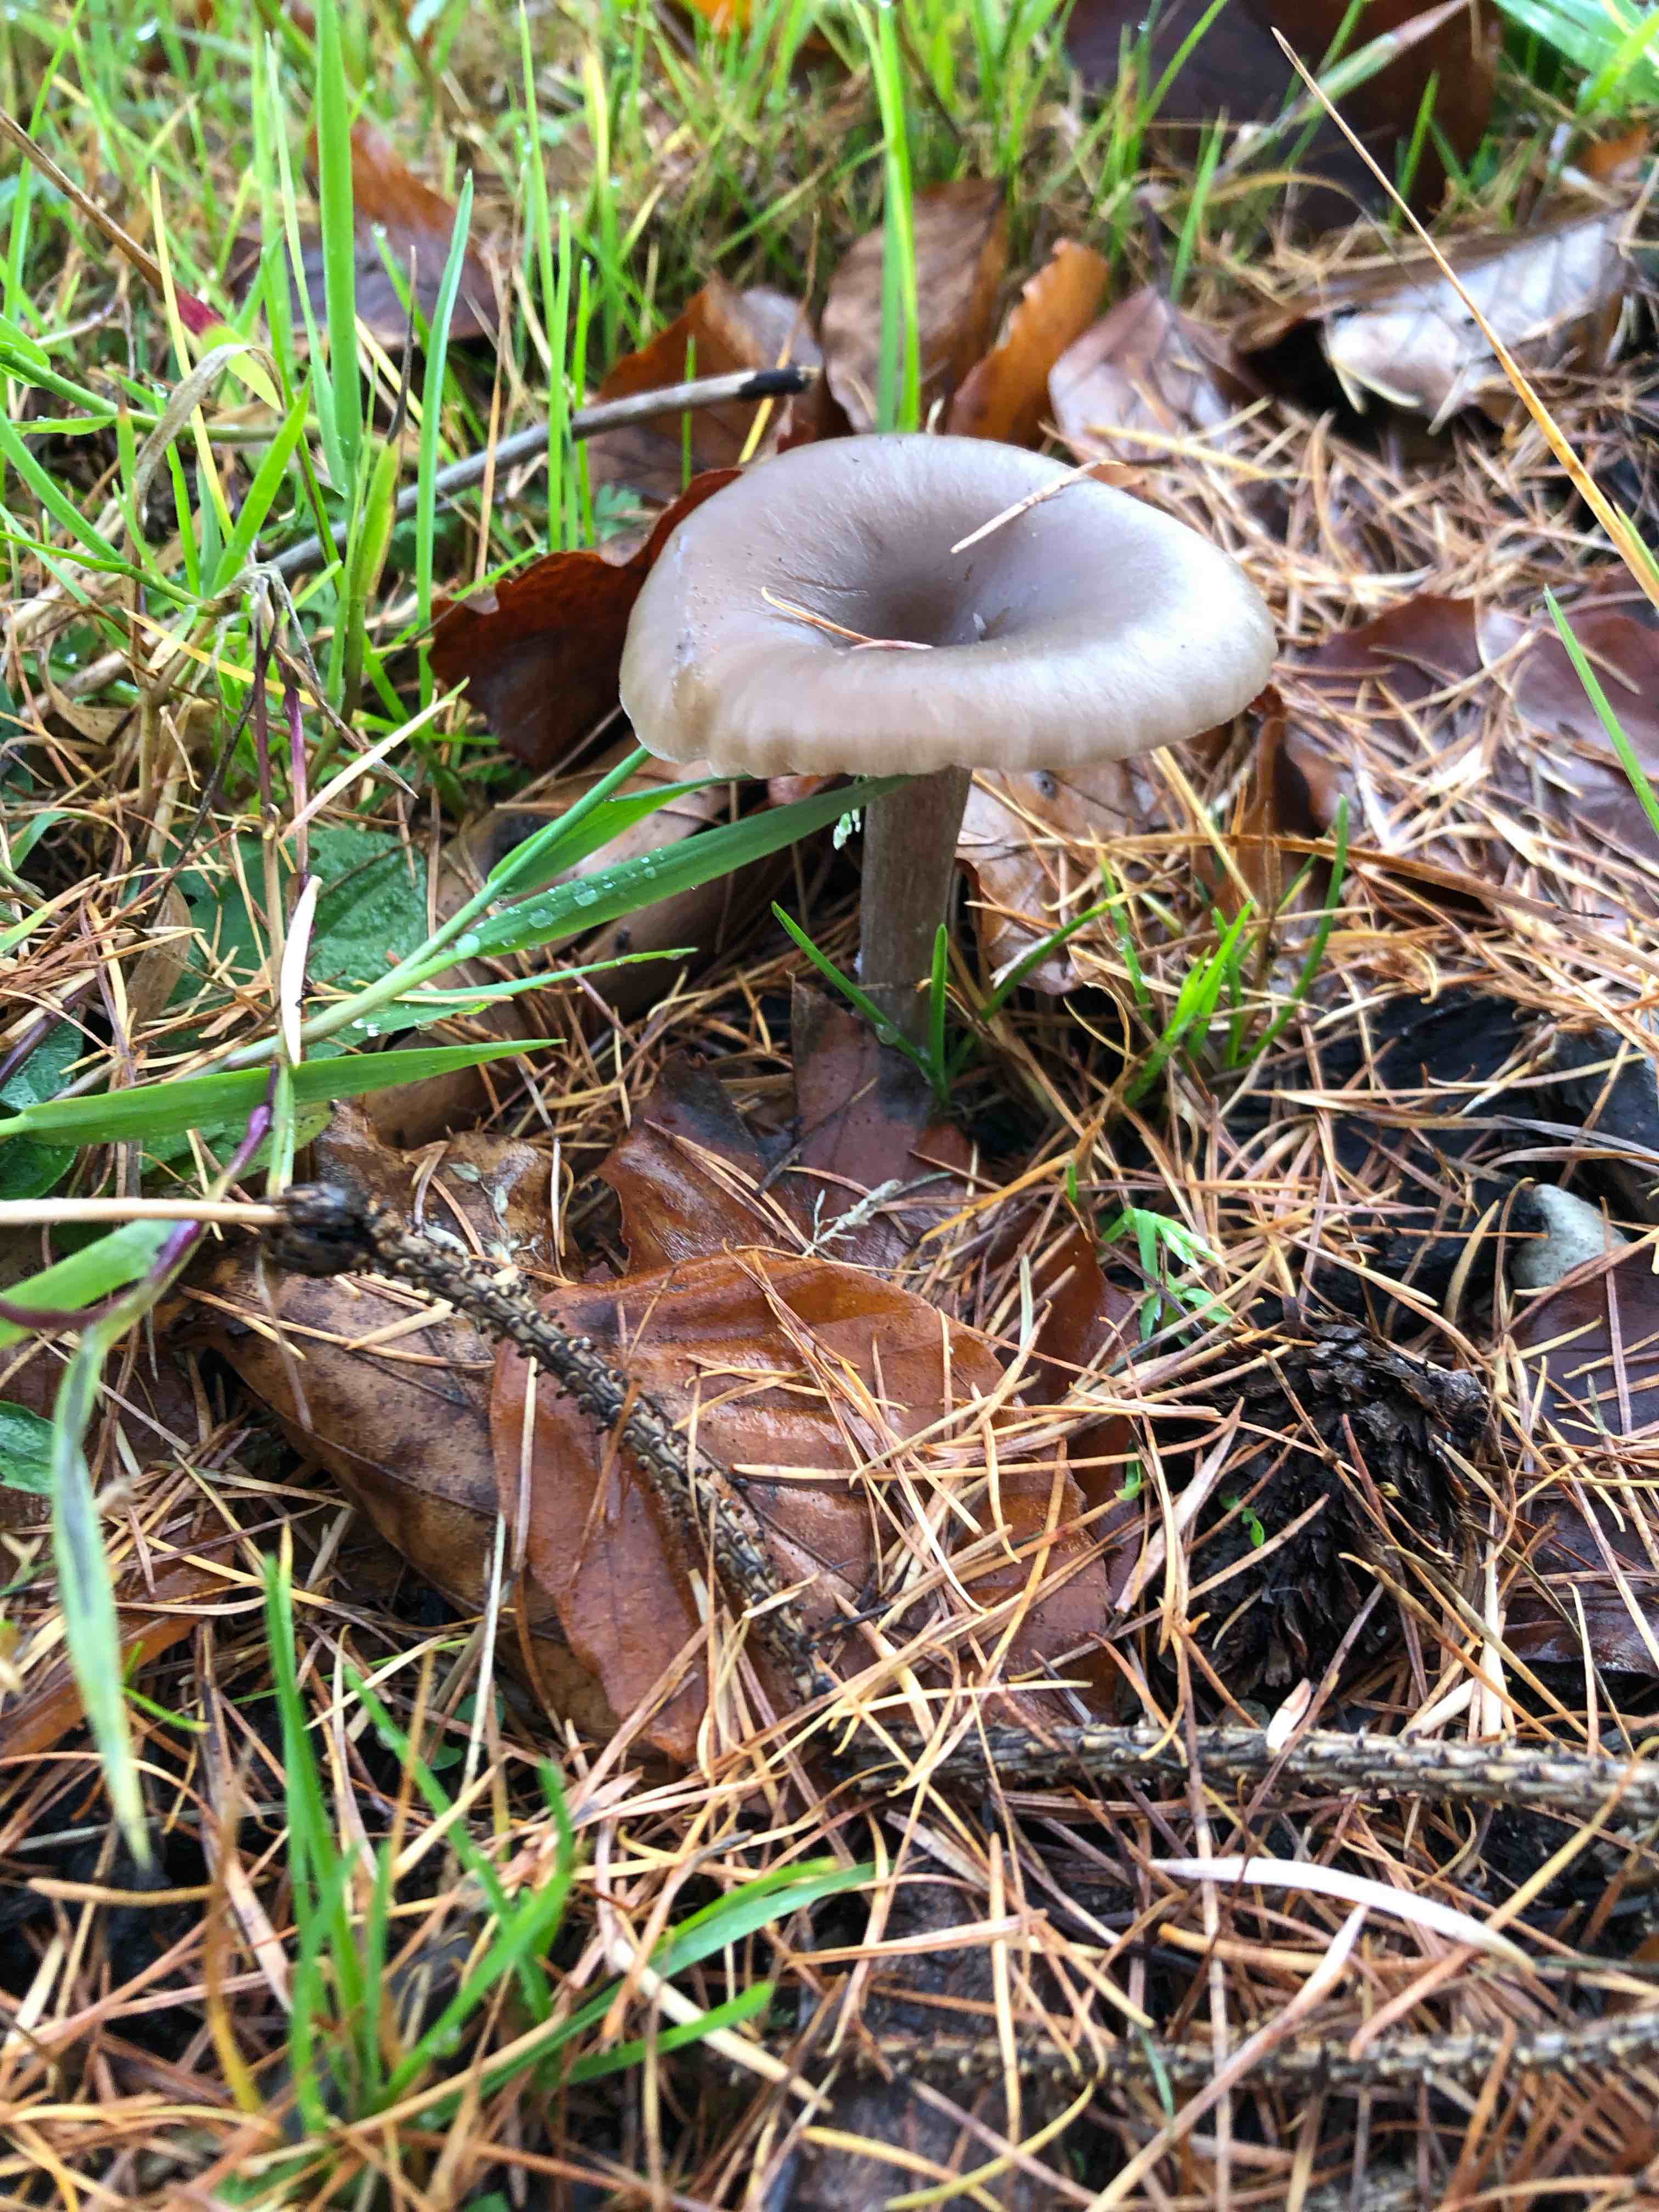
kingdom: Fungi
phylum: Basidiomycota
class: Agaricomycetes
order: Agaricales
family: Pseudoclitocybaceae
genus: Pseudoclitocybe
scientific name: Pseudoclitocybe cyathiformis
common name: almindelig bægertragthat
